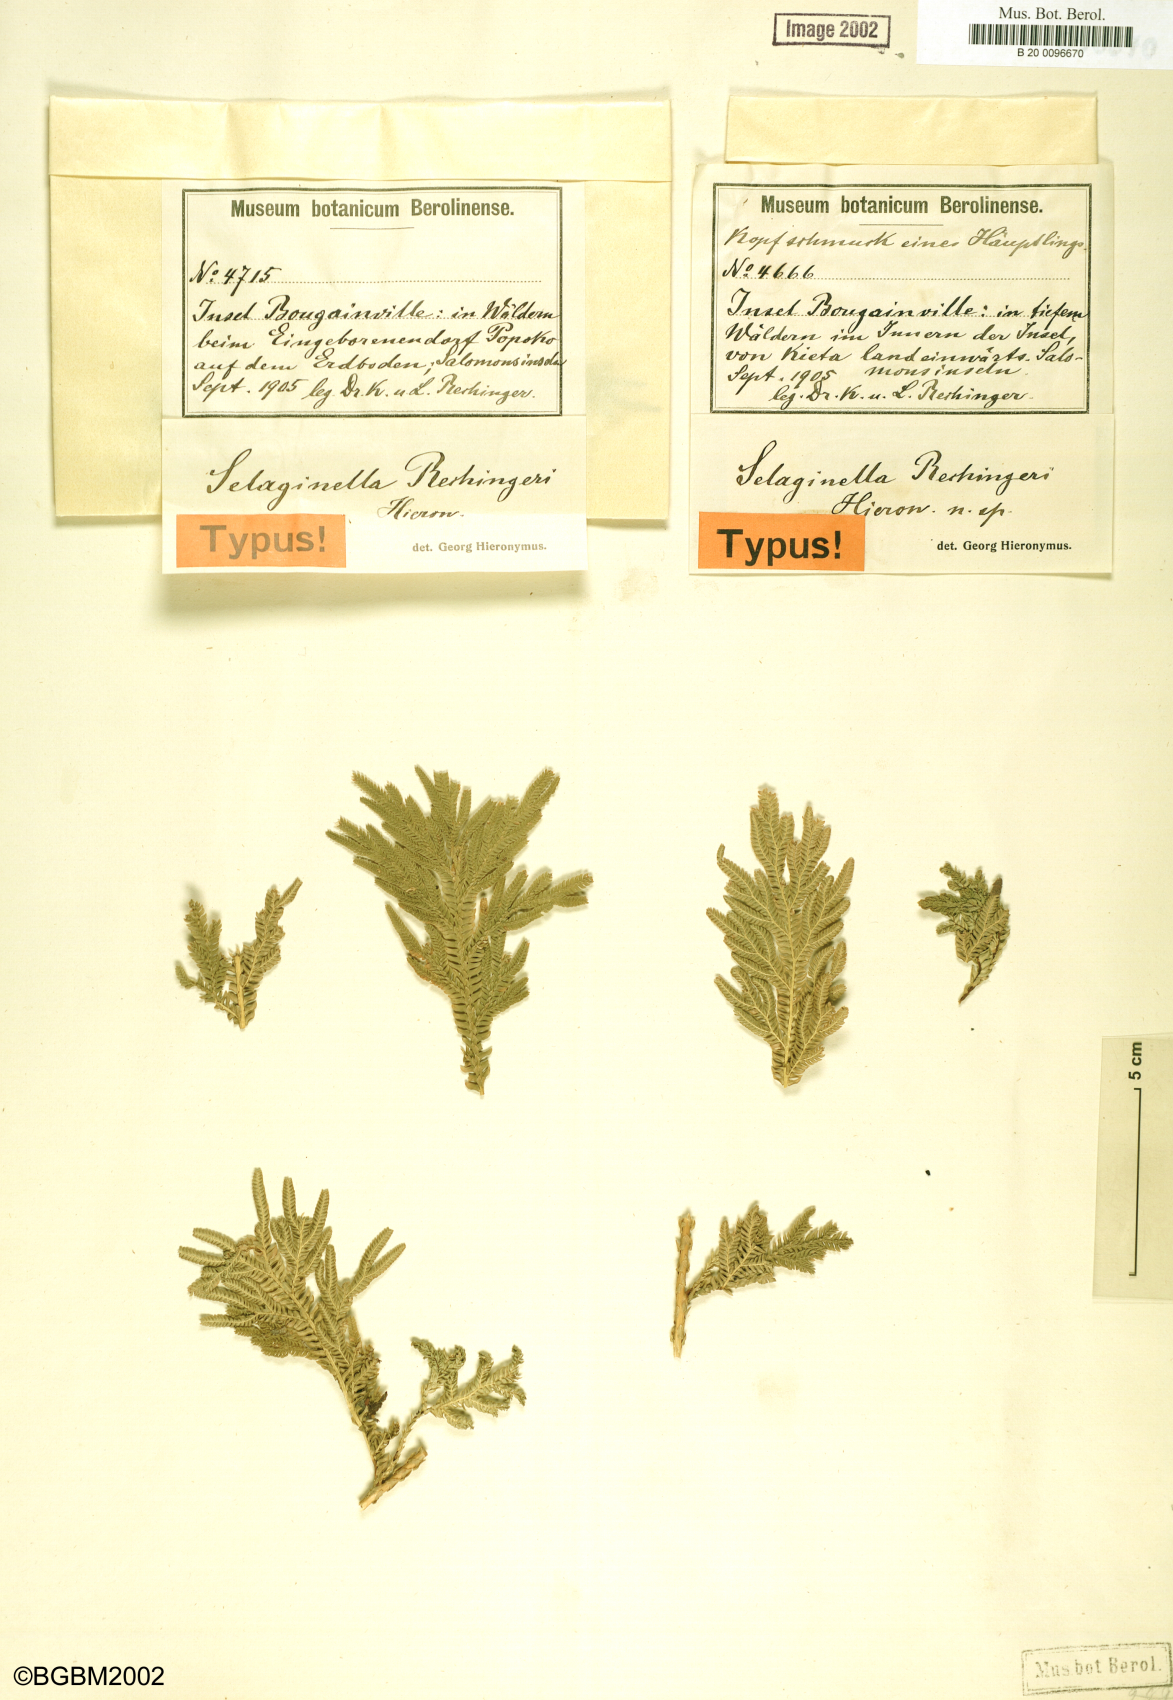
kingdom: Plantae
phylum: Tracheophyta
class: Lycopodiopsida
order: Selaginellales
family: Selaginellaceae
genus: Selaginella
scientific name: Selaginella rechingeri
